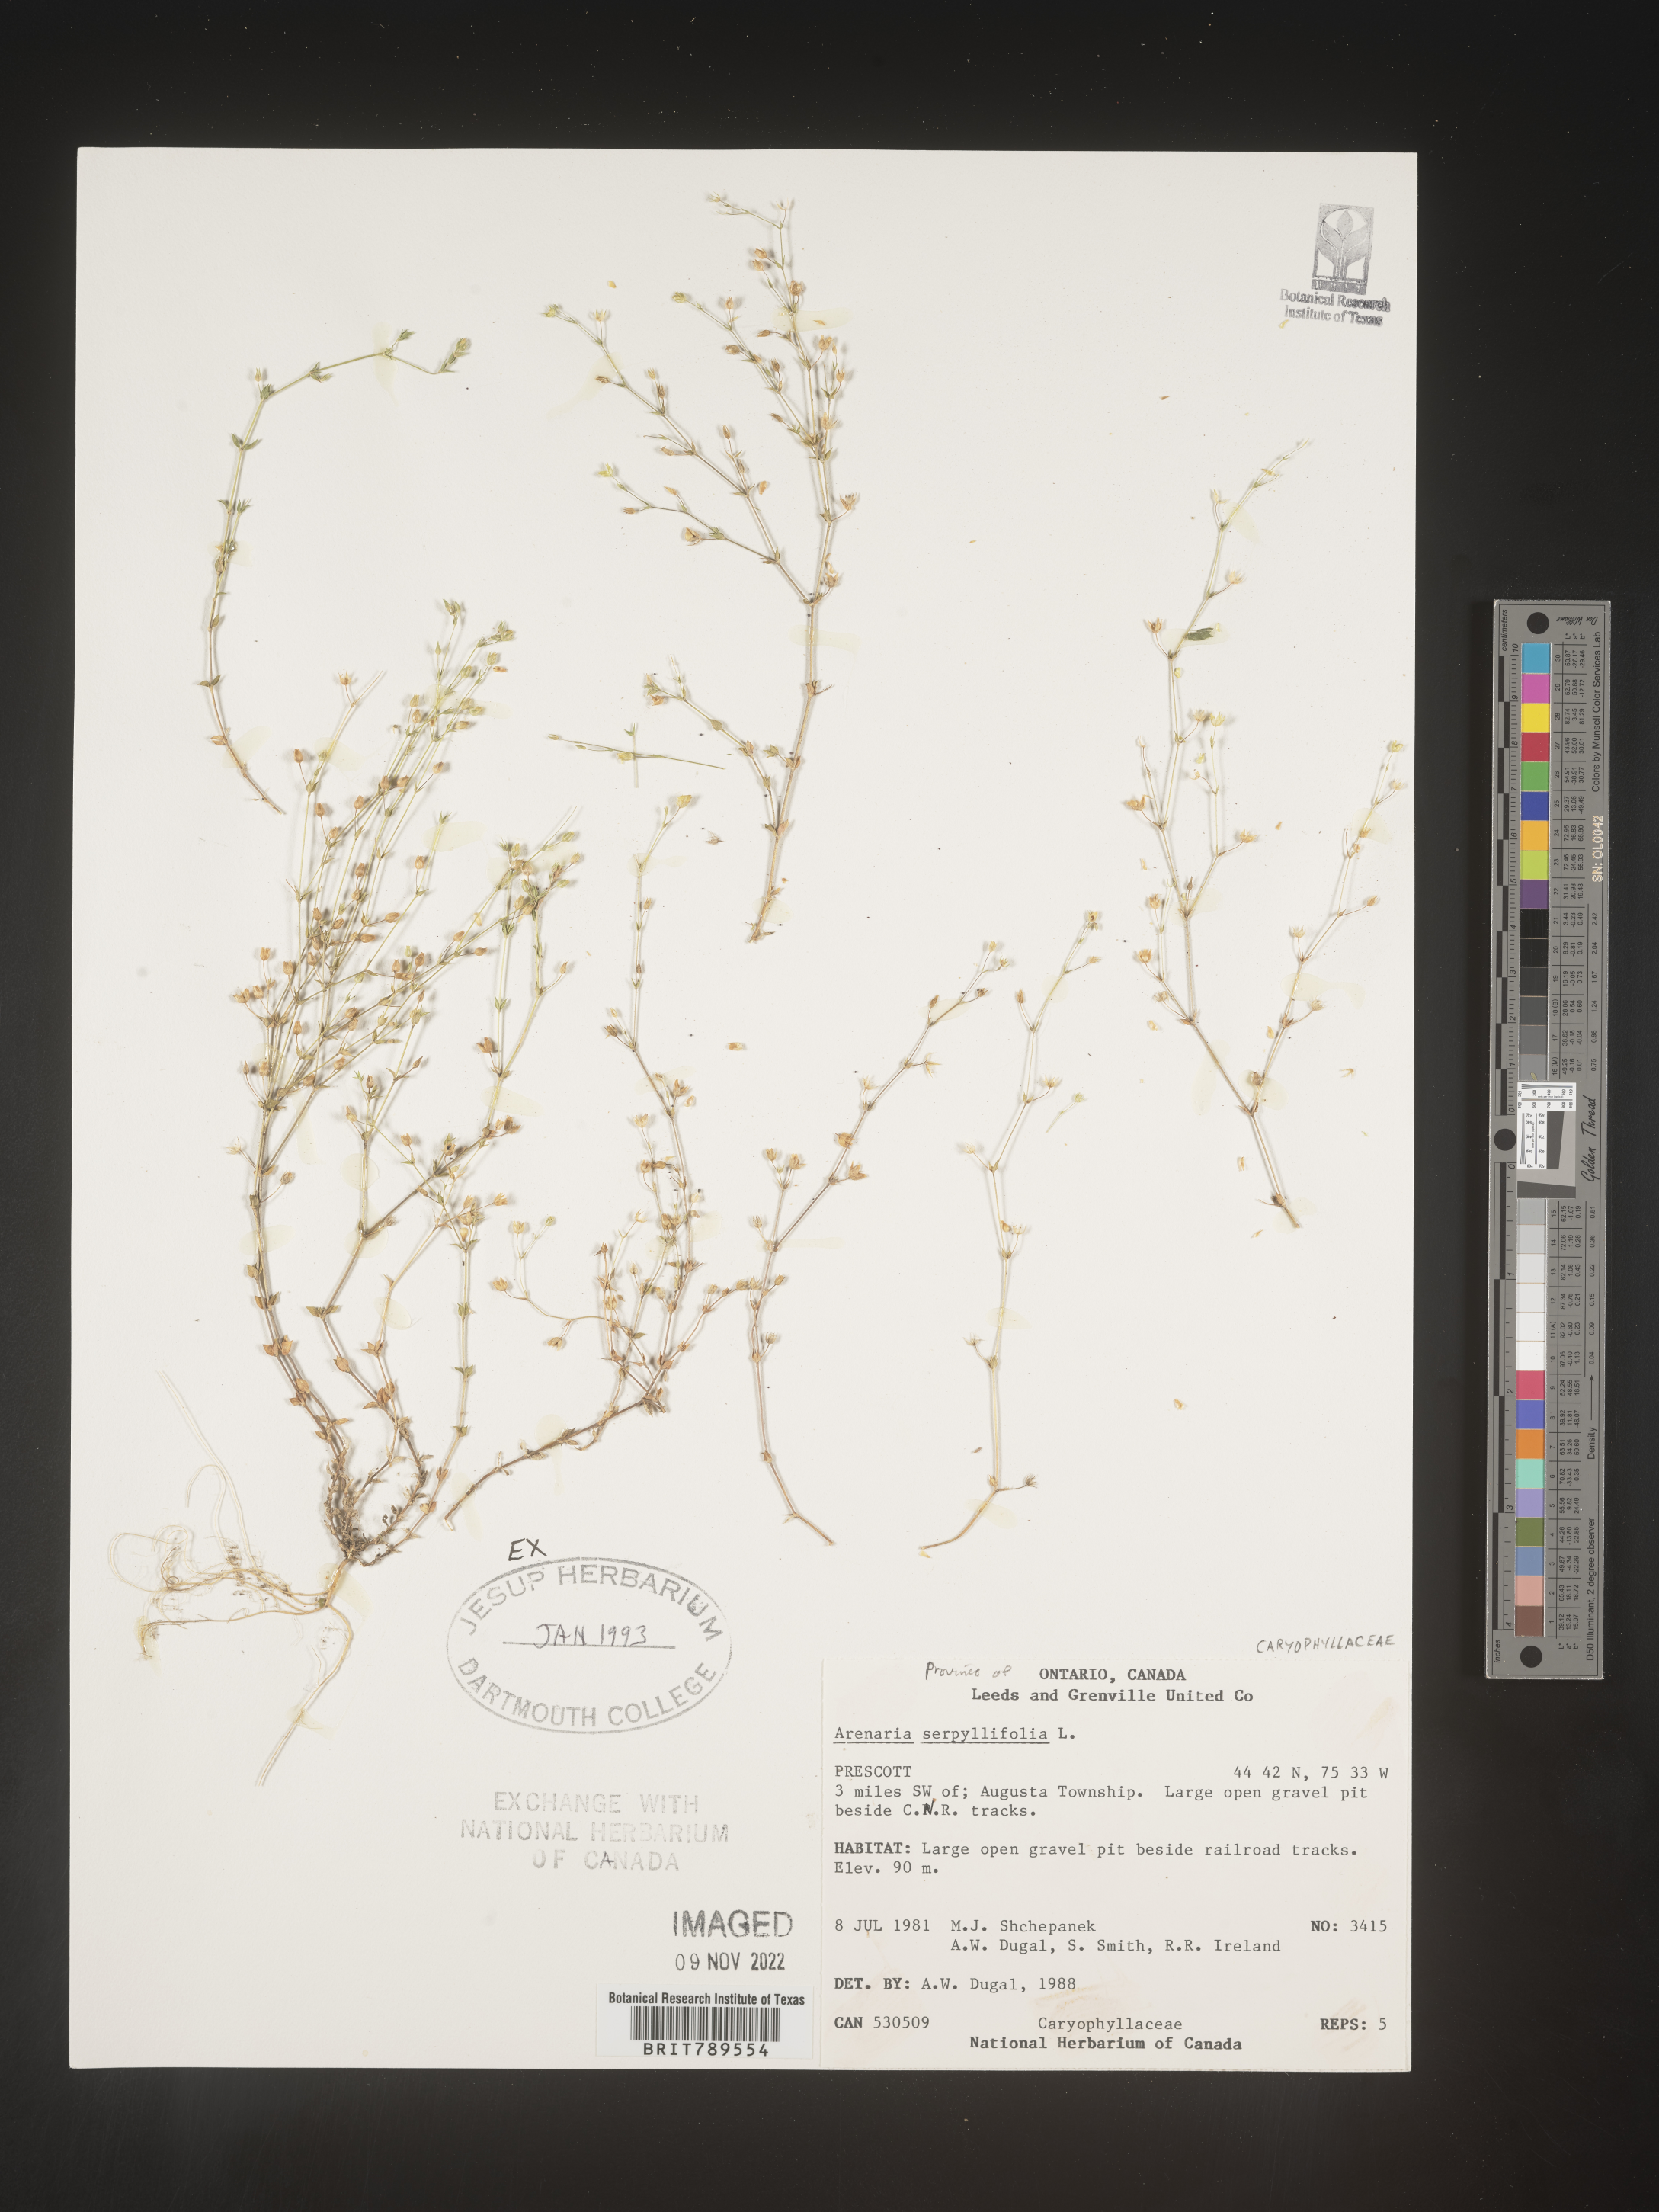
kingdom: Plantae
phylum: Tracheophyta
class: Magnoliopsida
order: Caryophyllales
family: Caryophyllaceae
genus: Arenaria
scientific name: Arenaria serpyllifolia
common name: Thyme-leaved sandwort
